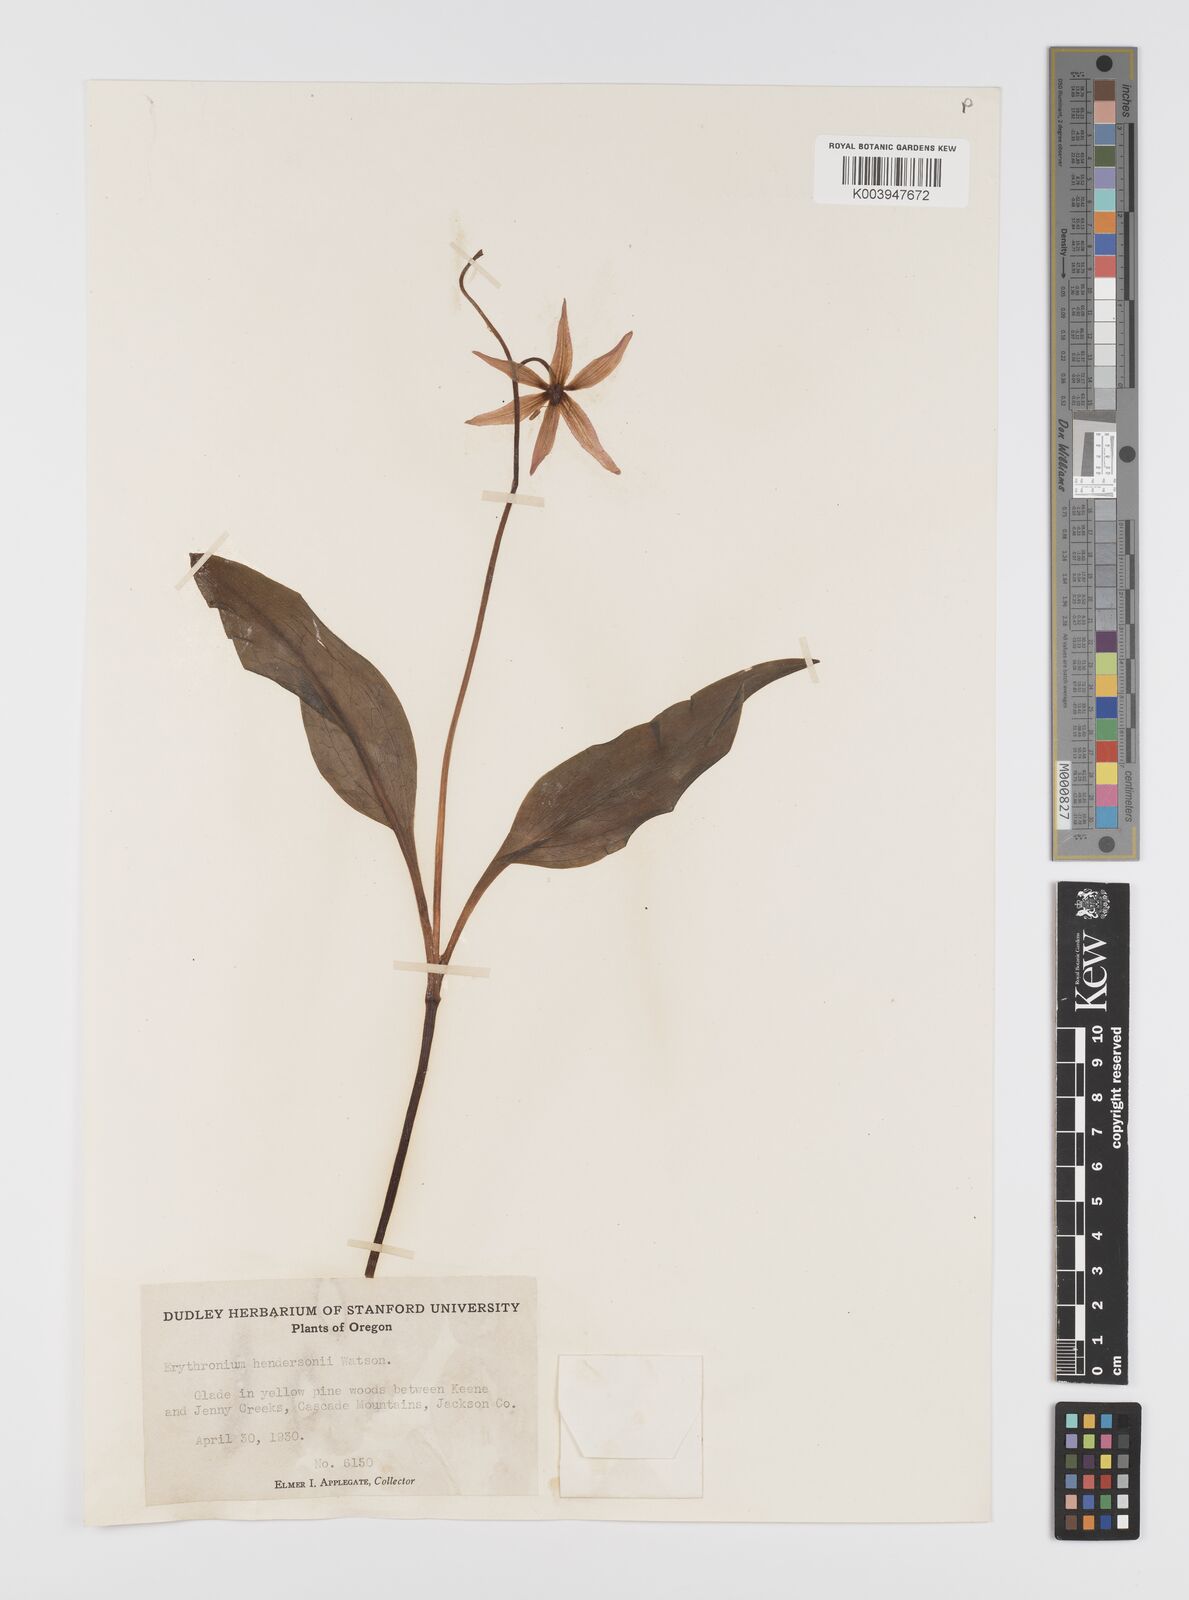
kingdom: Plantae
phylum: Tracheophyta
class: Liliopsida
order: Liliales
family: Liliaceae
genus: Erythronium
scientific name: Erythronium hendersonii
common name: Henderson's fawn-lily
